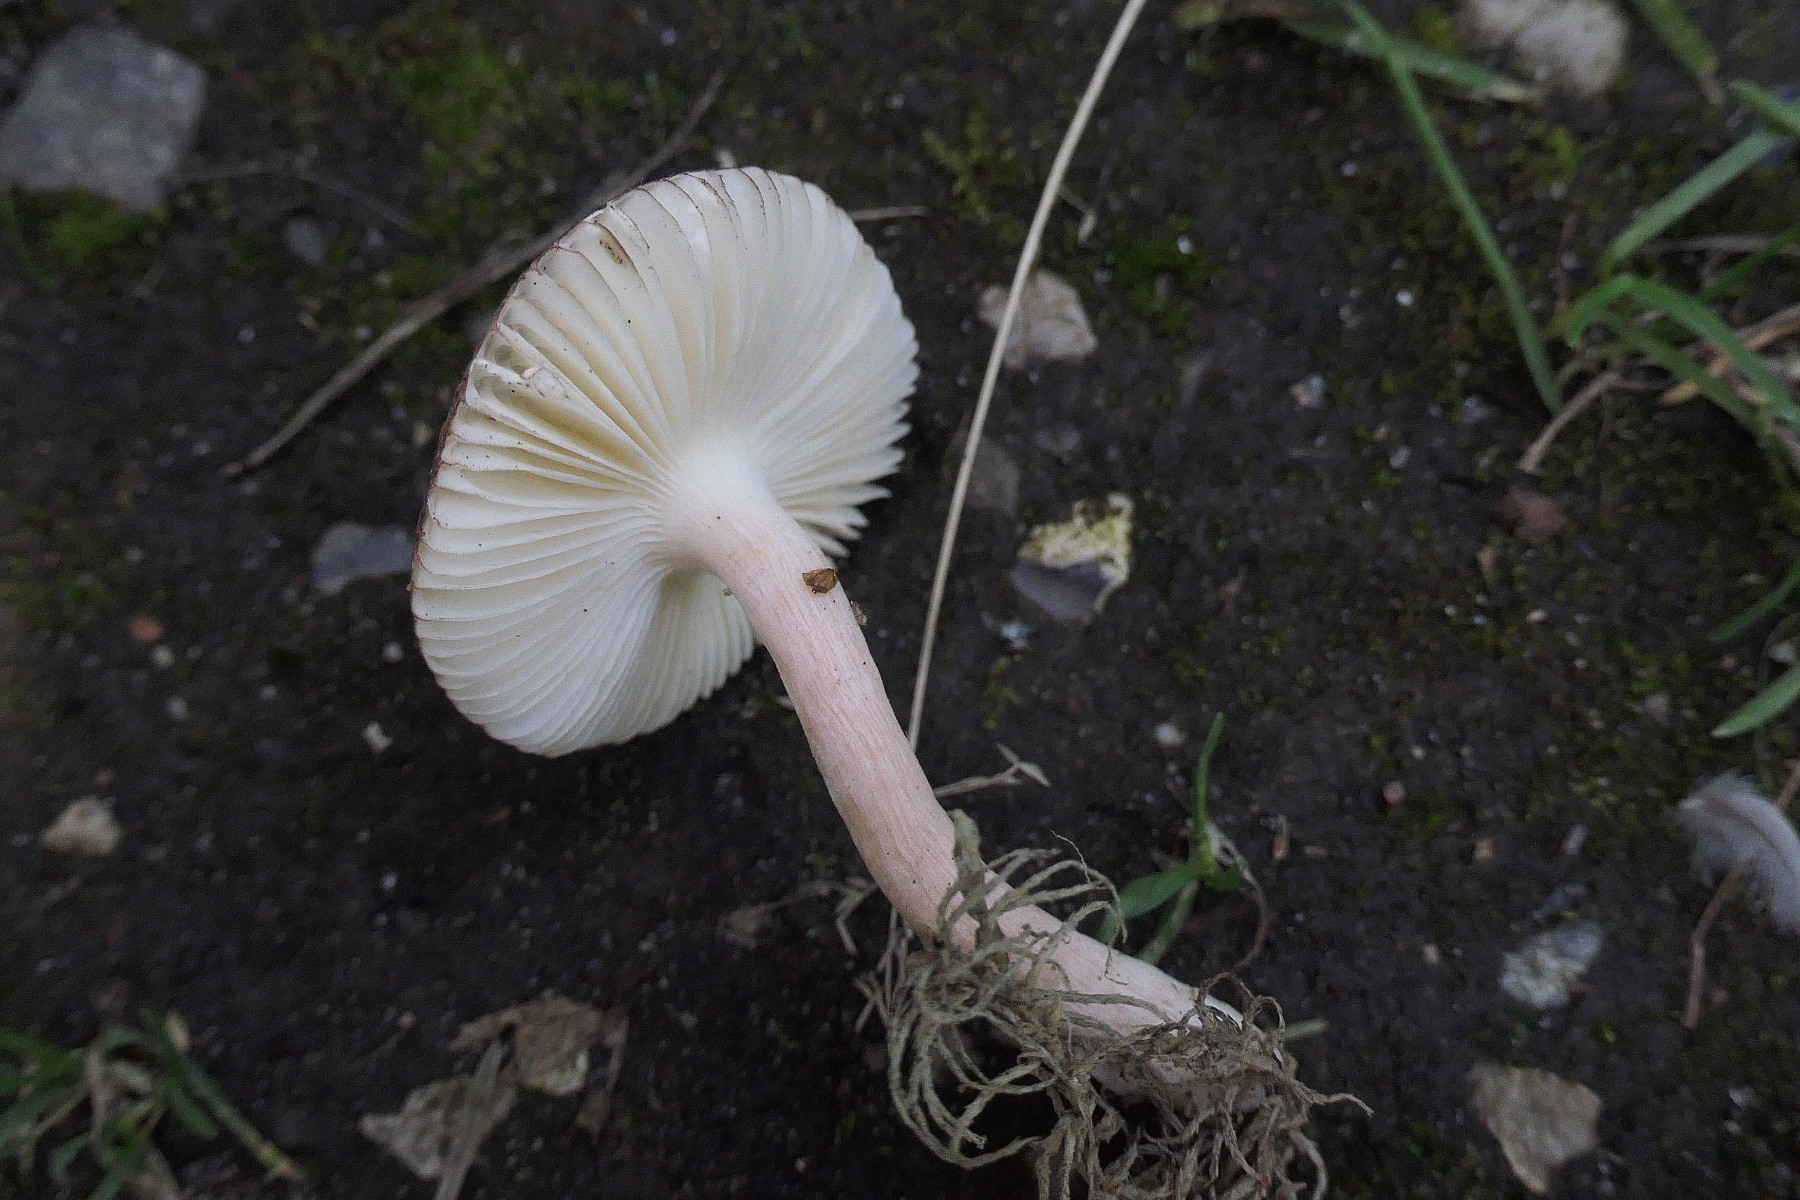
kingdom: Fungi
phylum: Basidiomycota
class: Agaricomycetes
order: Russulales
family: Russulaceae
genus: Russula
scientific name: Russula robertii
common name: tørvemos-skørhat
